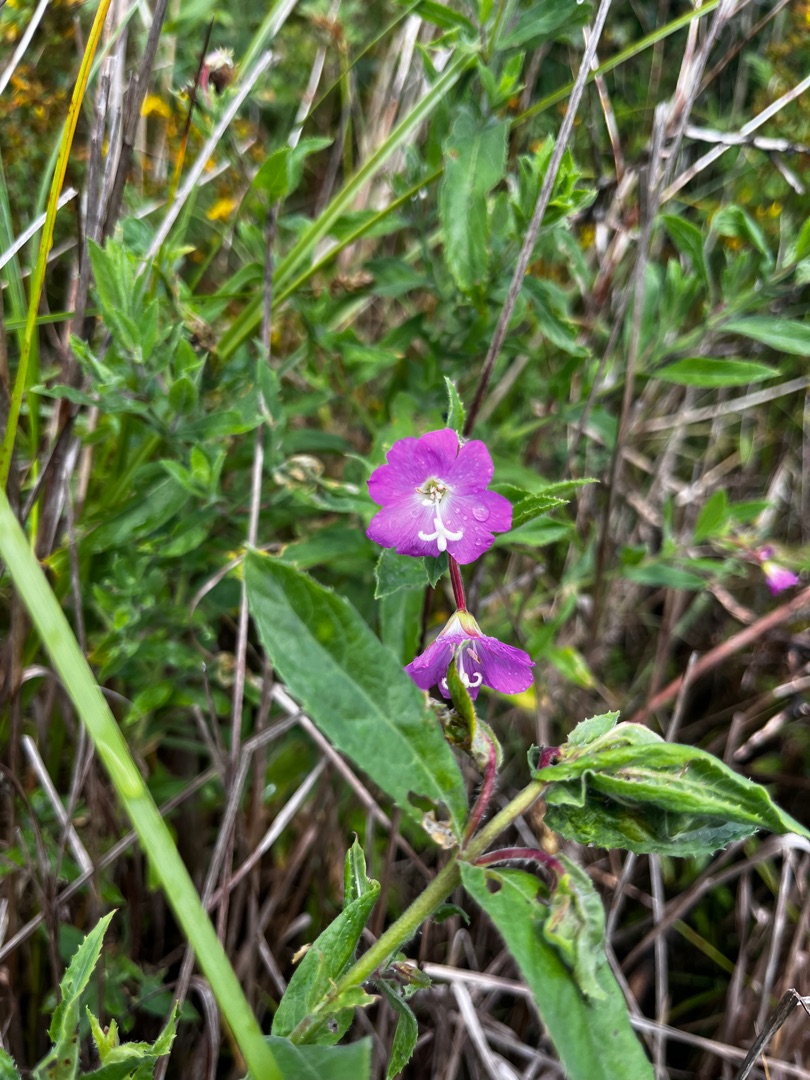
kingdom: Plantae
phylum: Tracheophyta
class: Magnoliopsida
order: Myrtales
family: Onagraceae
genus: Epilobium
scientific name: Epilobium hirsutum
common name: Lådden dueurt
